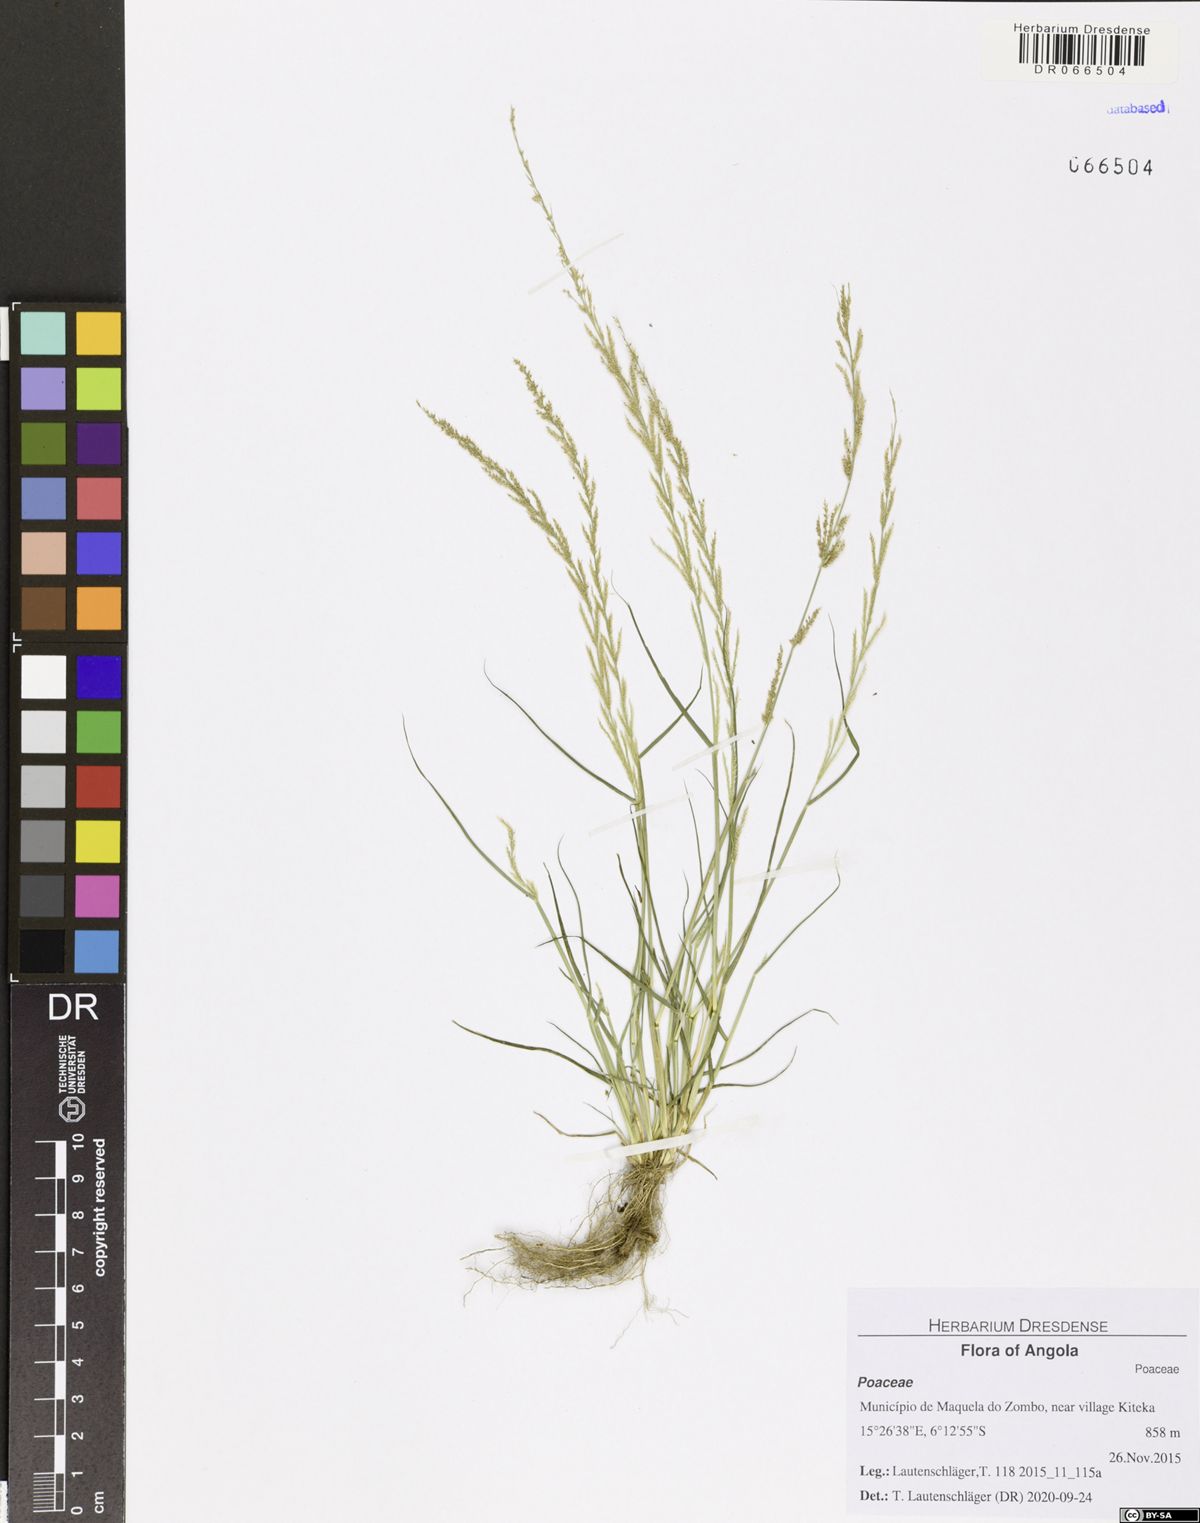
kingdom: Plantae
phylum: Tracheophyta
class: Liliopsida
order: Poales
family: Poaceae
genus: Sporobolus
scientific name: Sporobolus molleri
